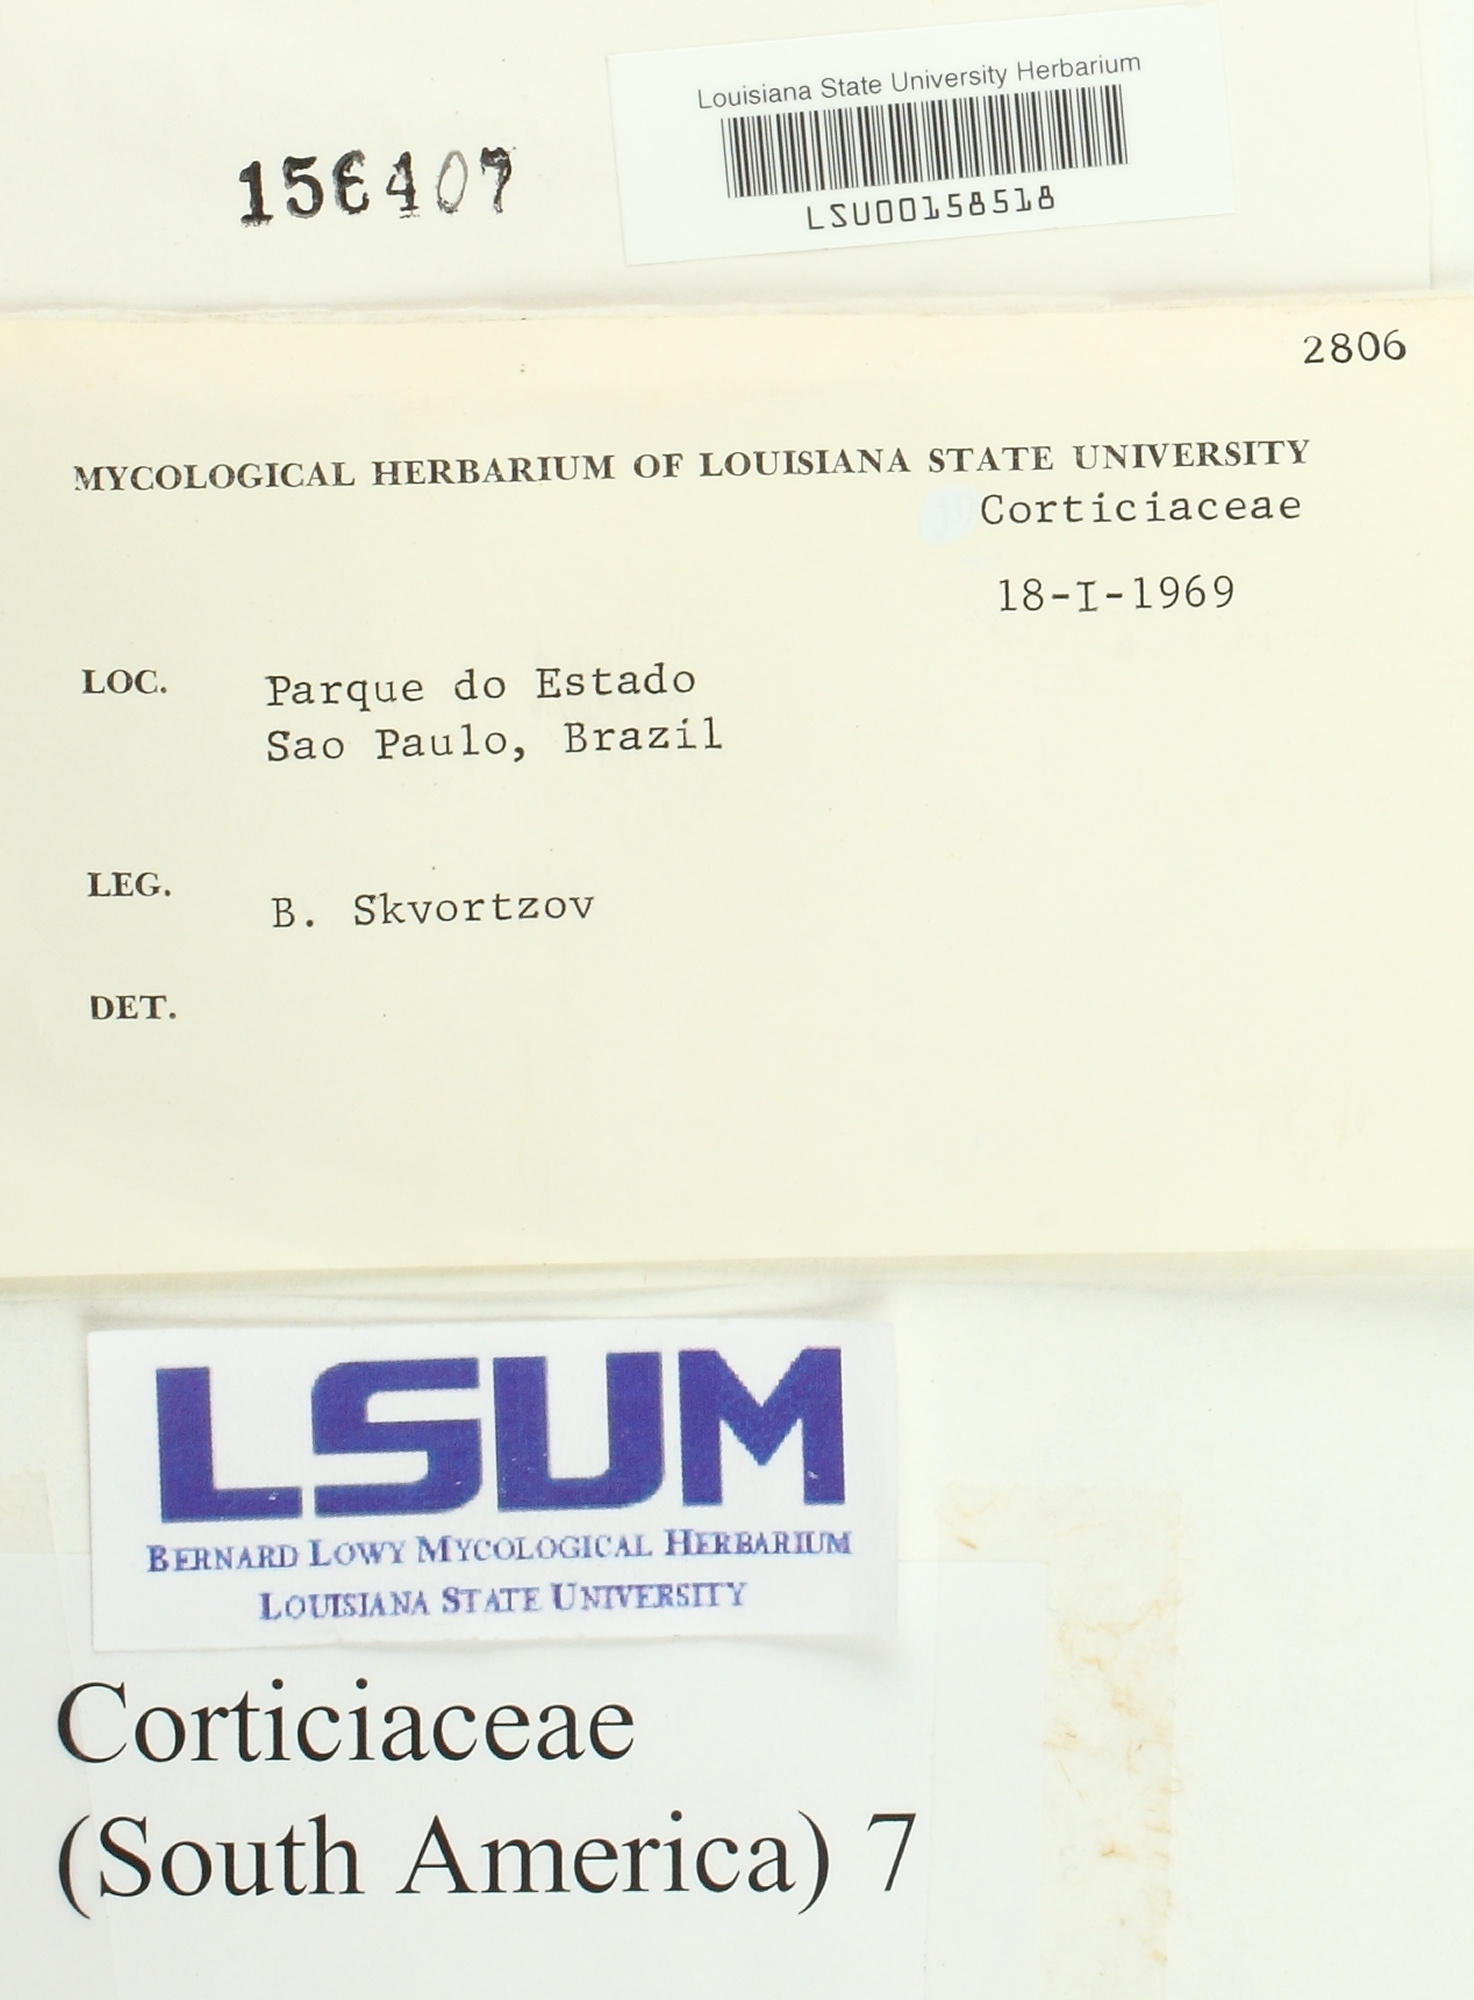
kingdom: Fungi
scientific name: Fungi
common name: Fungi
